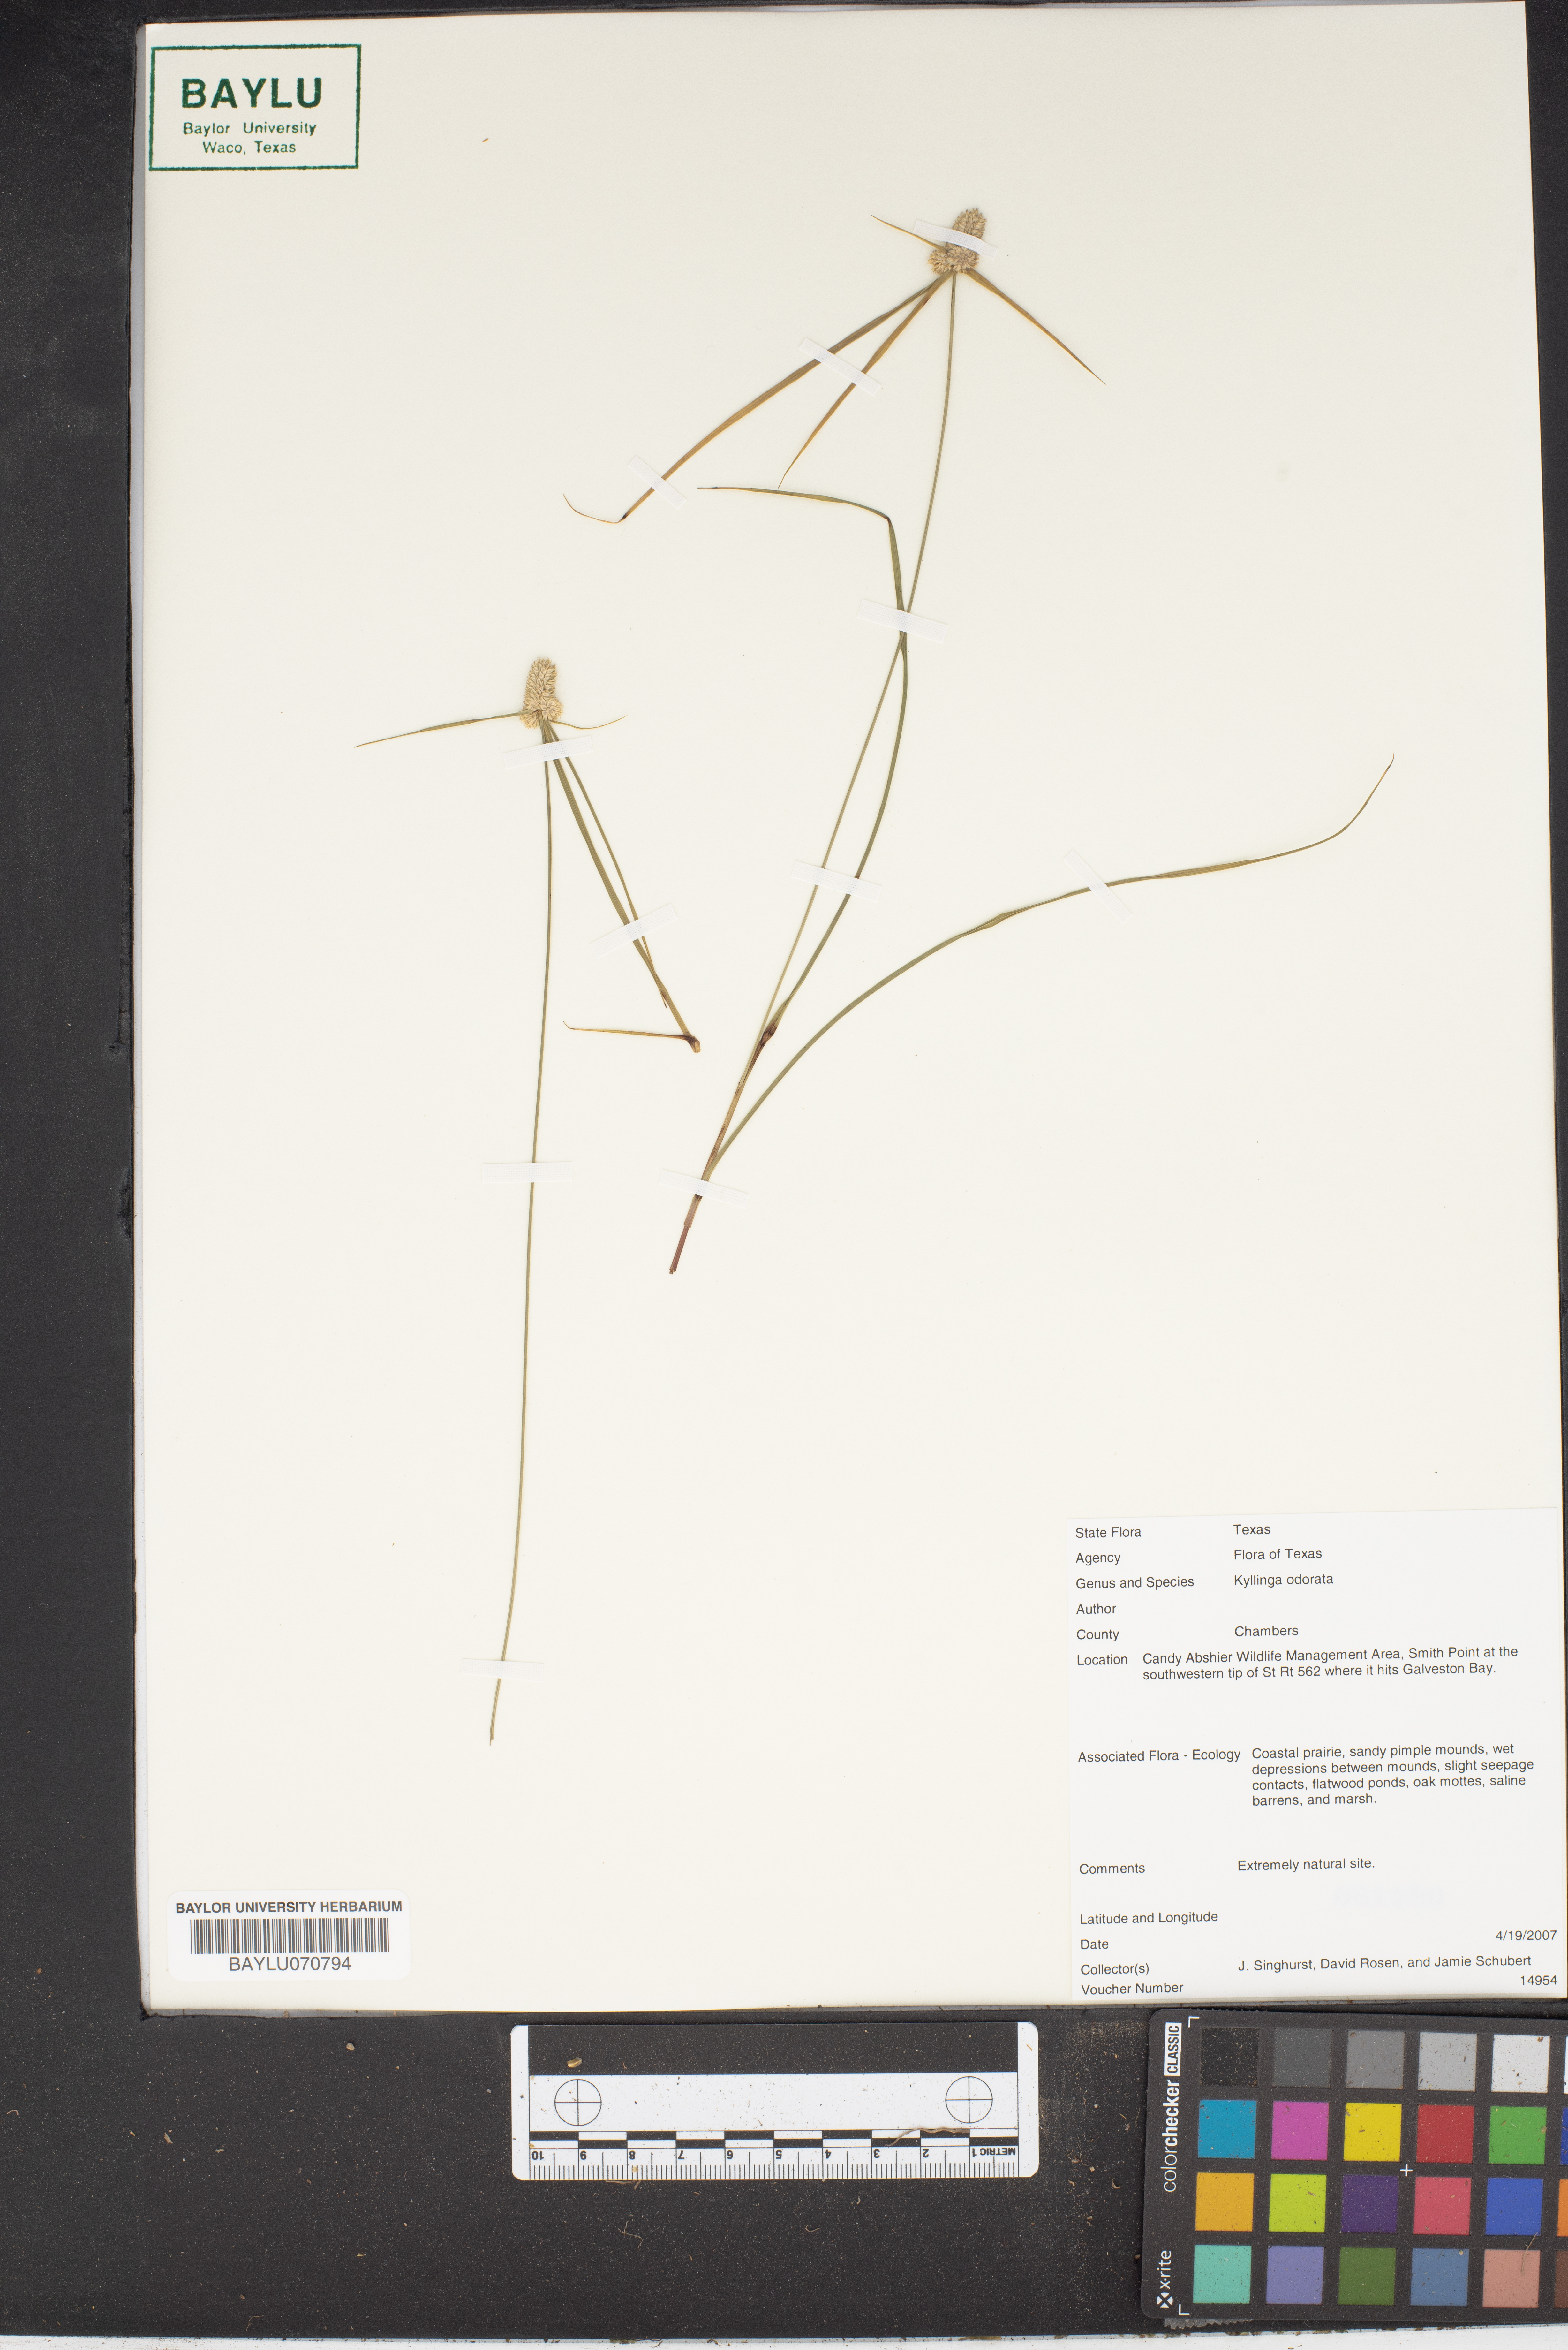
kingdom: Plantae
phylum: Tracheophyta
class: Liliopsida
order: Poales
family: Cyperaceae
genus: Cyperus
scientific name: Cyperus sesquiflorus
